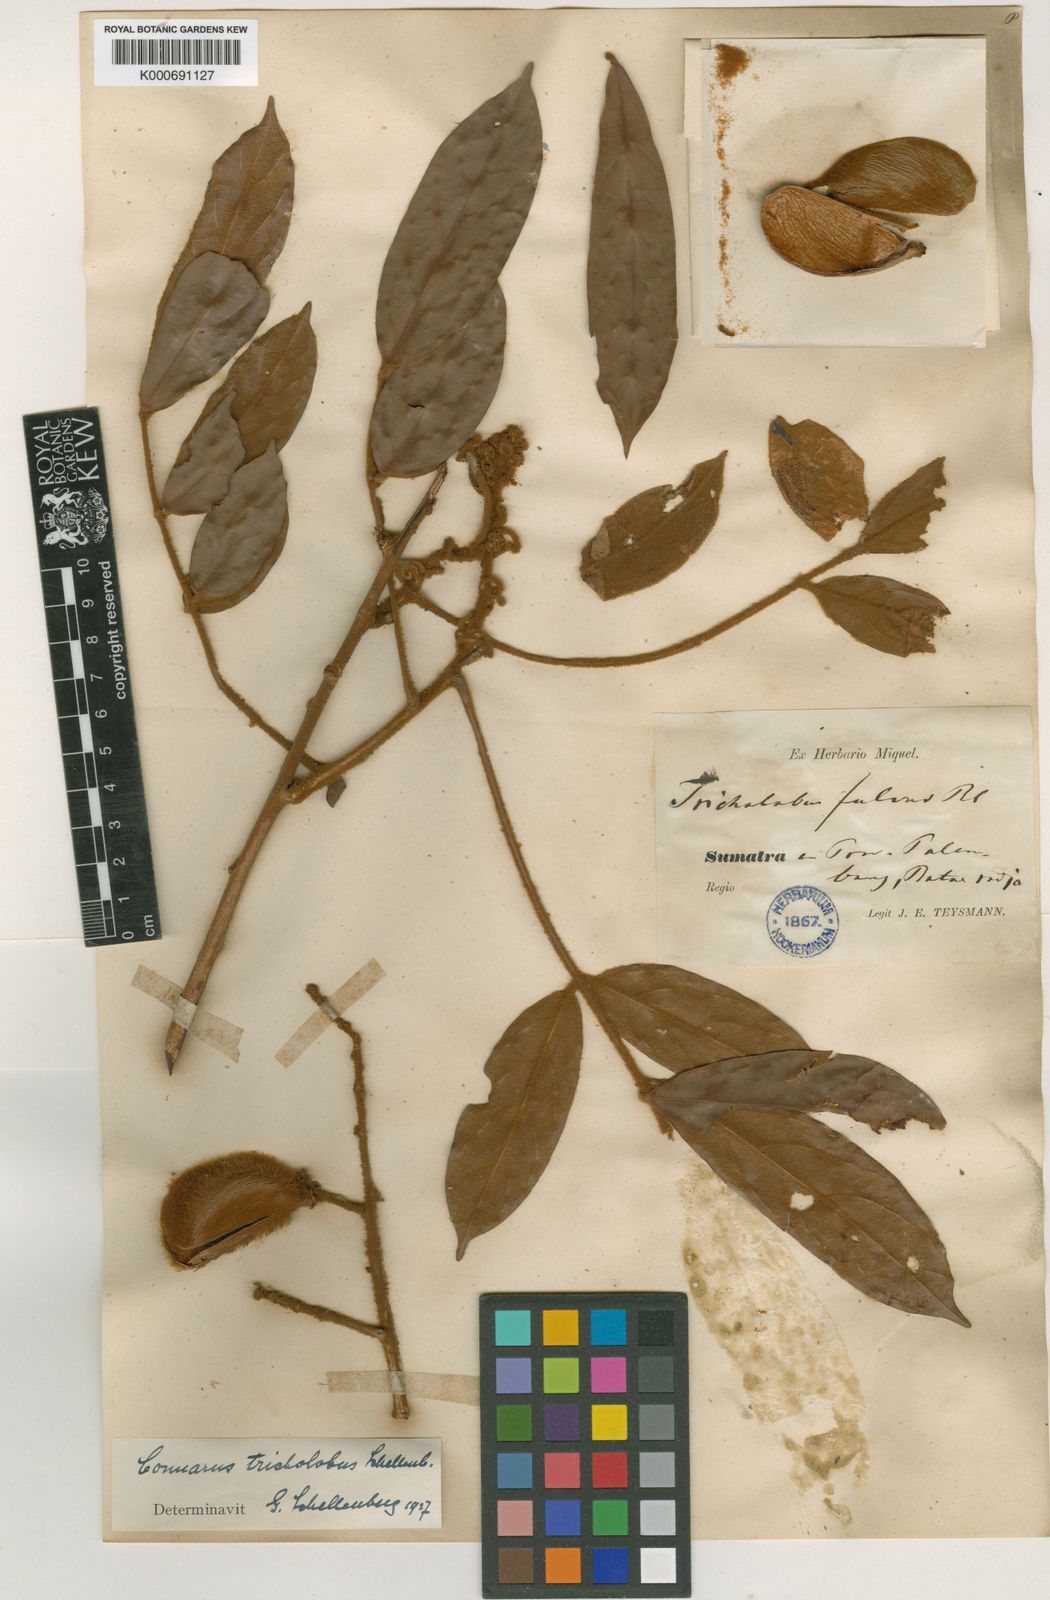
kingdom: Plantae
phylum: Tracheophyta
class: Magnoliopsida
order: Oxalidales
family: Connaraceae
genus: Connarus
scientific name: Connarus villosus
